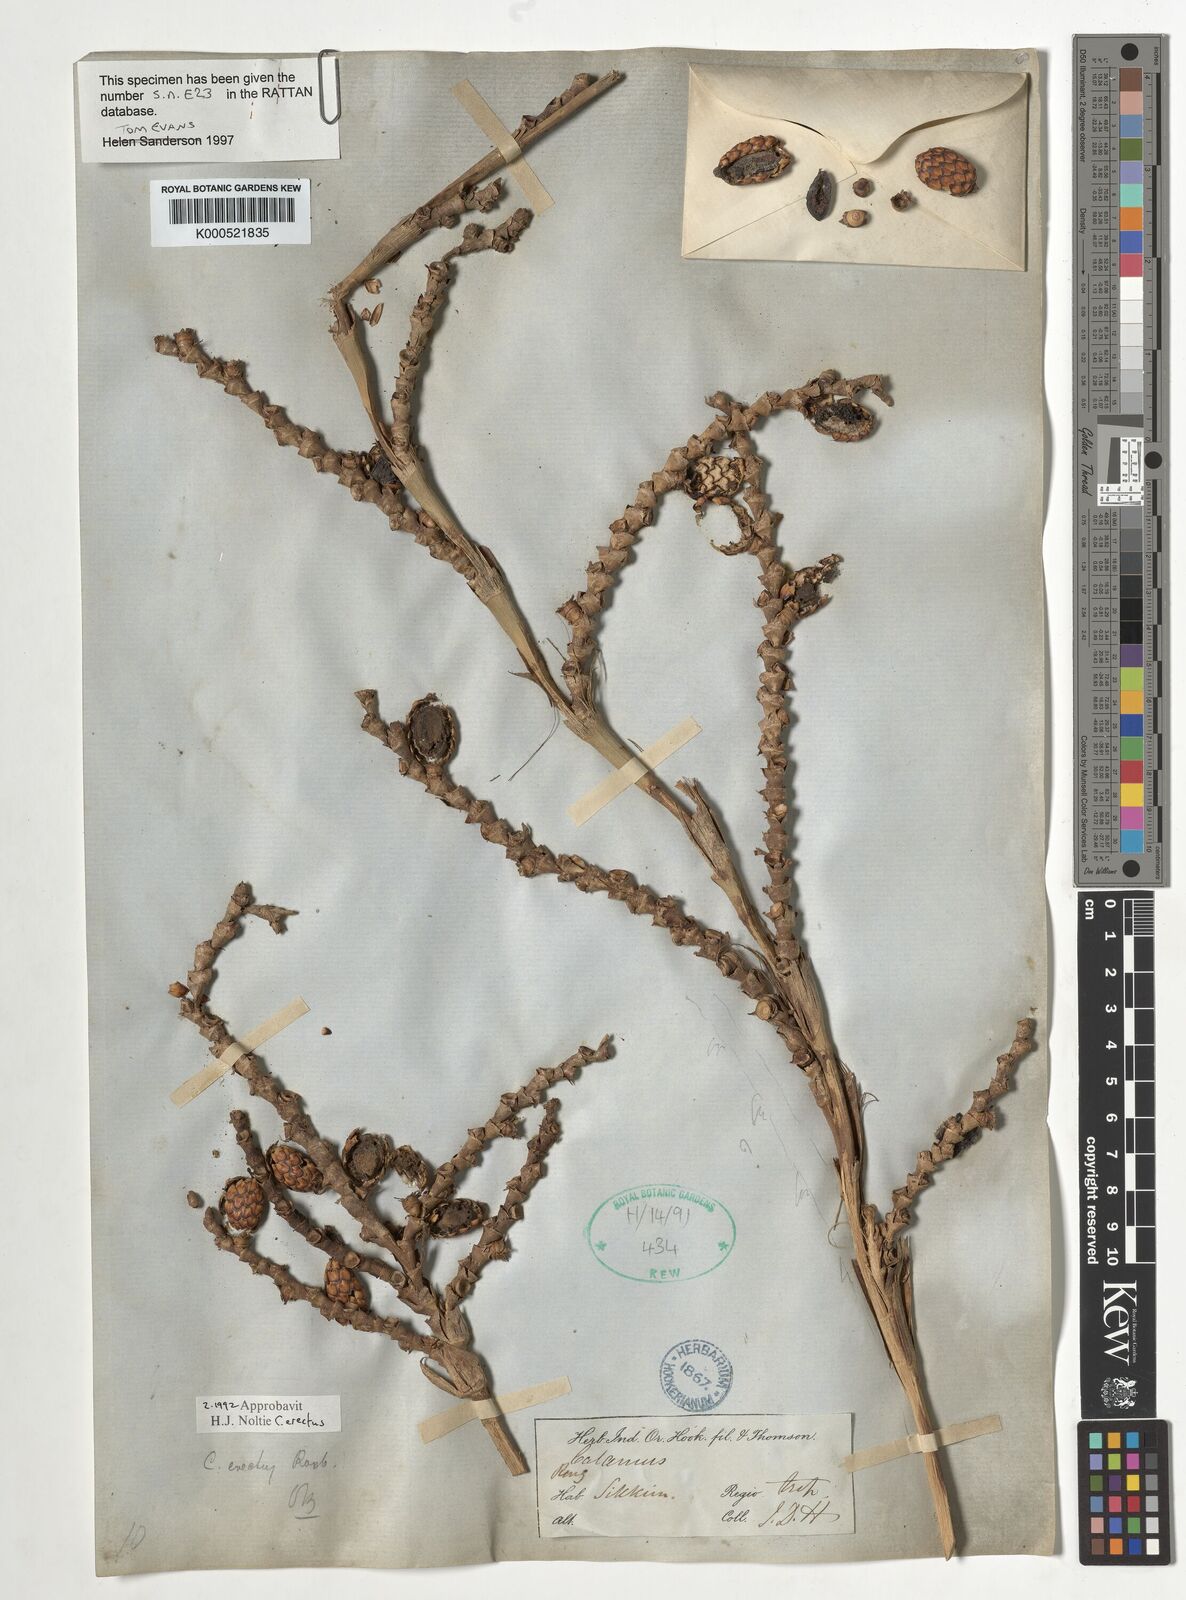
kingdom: Plantae
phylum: Tracheophyta
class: Liliopsida
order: Arecales
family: Arecaceae
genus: Calamus
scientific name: Calamus erectus
